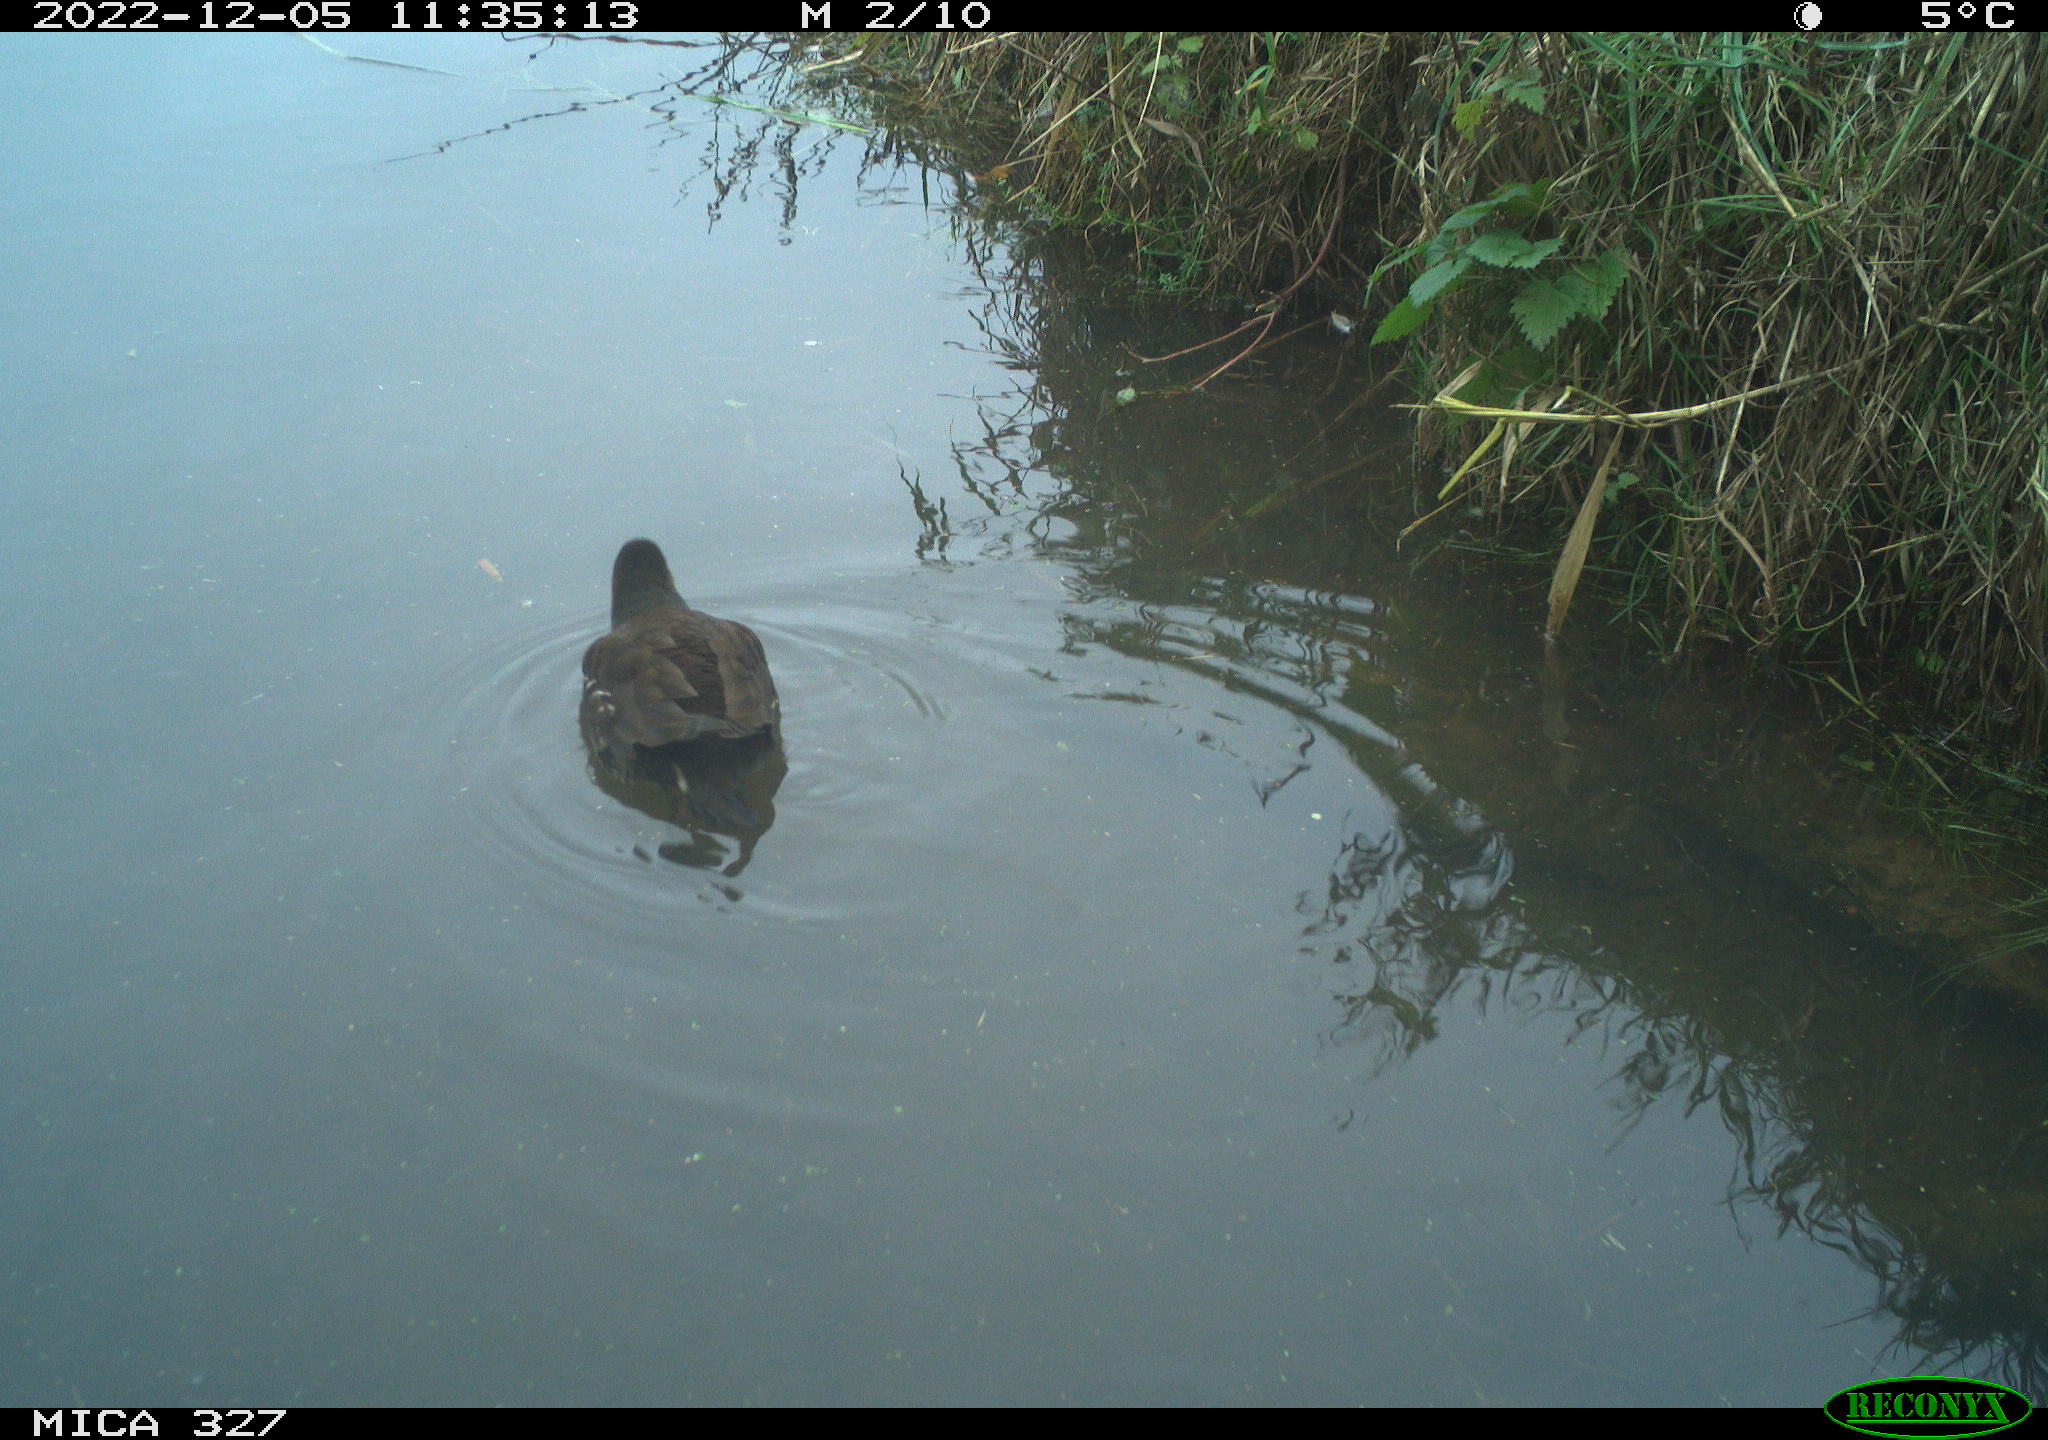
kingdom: Animalia
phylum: Chordata
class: Aves
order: Gruiformes
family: Rallidae
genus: Gallinula
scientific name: Gallinula chloropus
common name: Common moorhen
